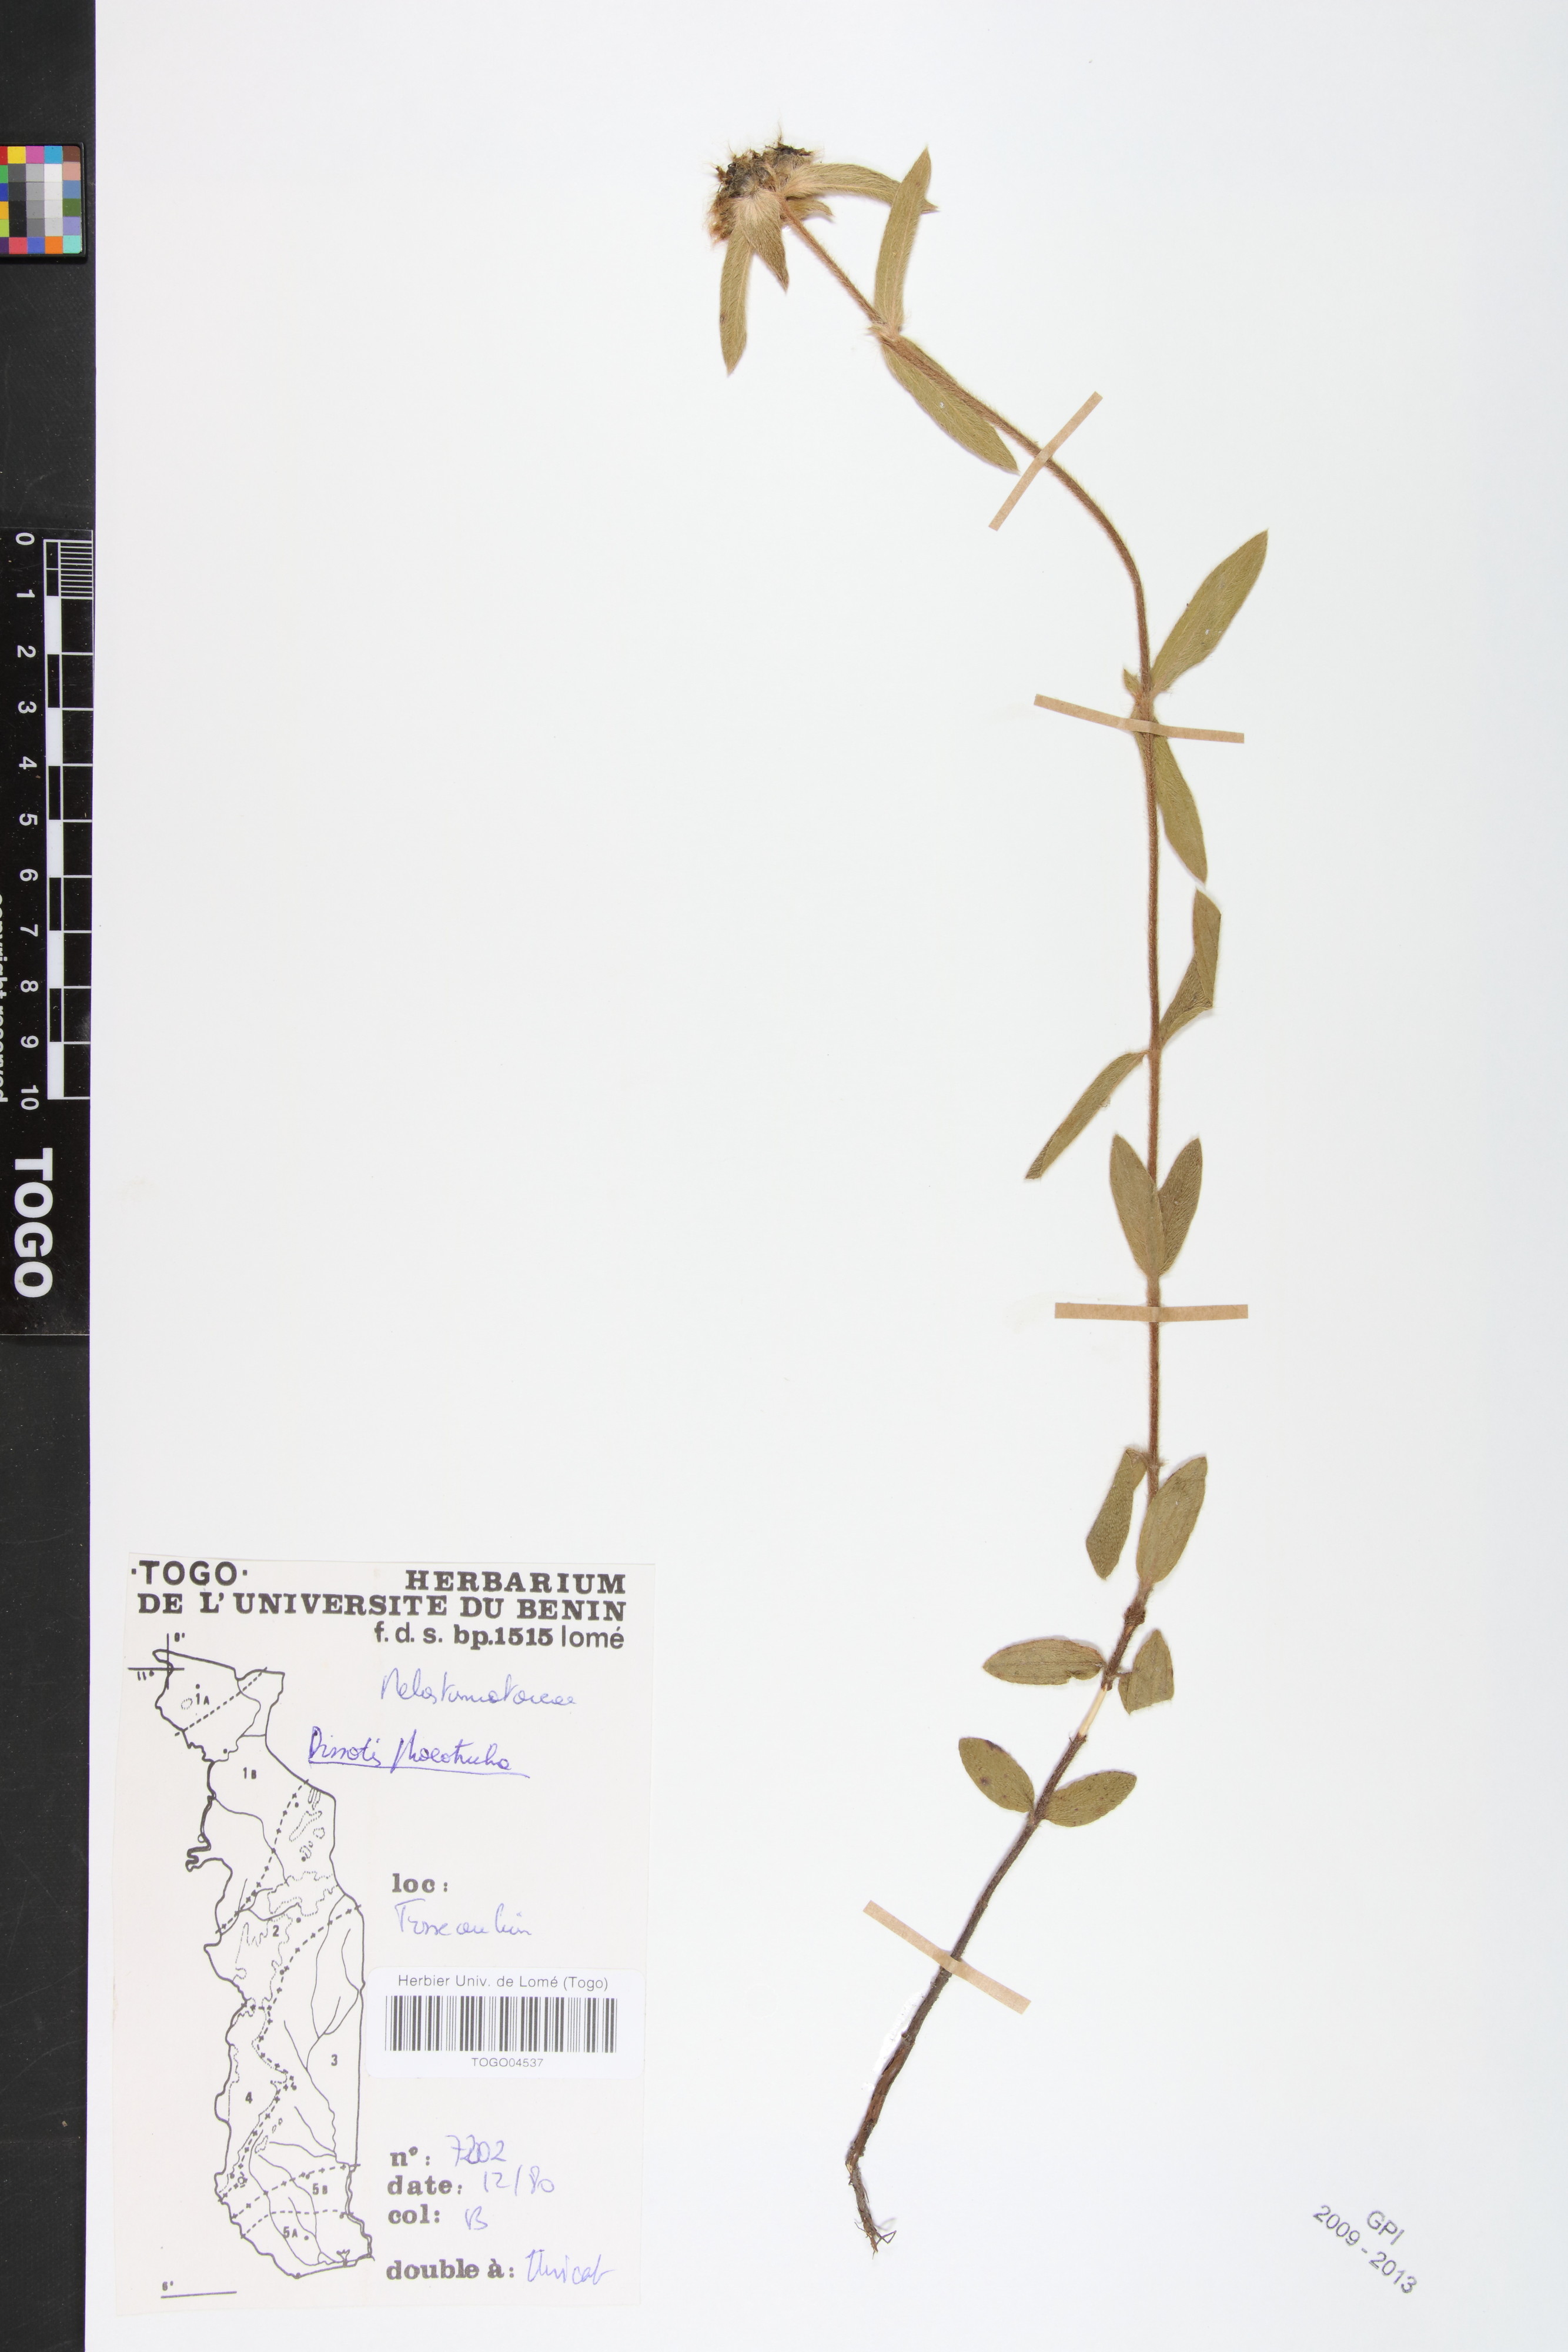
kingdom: Plantae
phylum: Tracheophyta
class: Magnoliopsida
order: Myrtales
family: Melastomataceae
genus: Antherotoma
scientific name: Antherotoma phaeotricha
